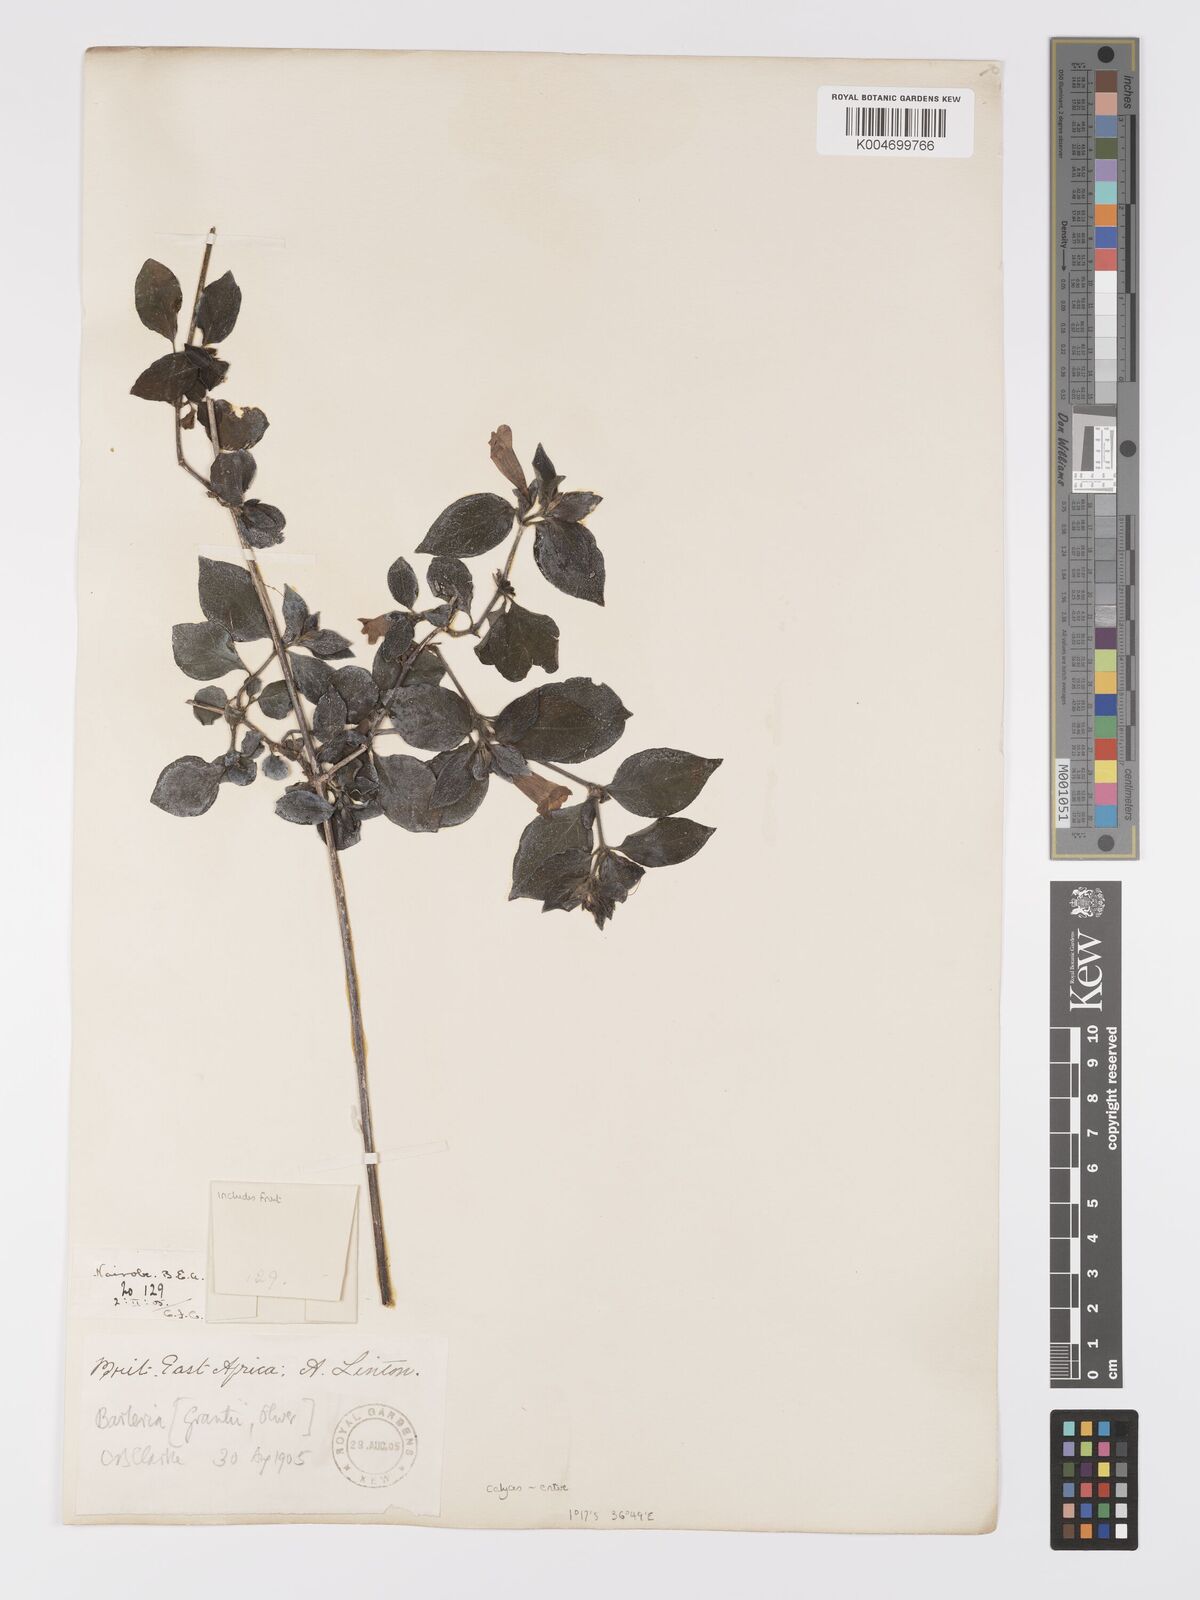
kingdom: Plantae
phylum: Tracheophyta
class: Magnoliopsida
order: Lamiales
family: Acanthaceae
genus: Barleria
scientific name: Barleria ventricosa
